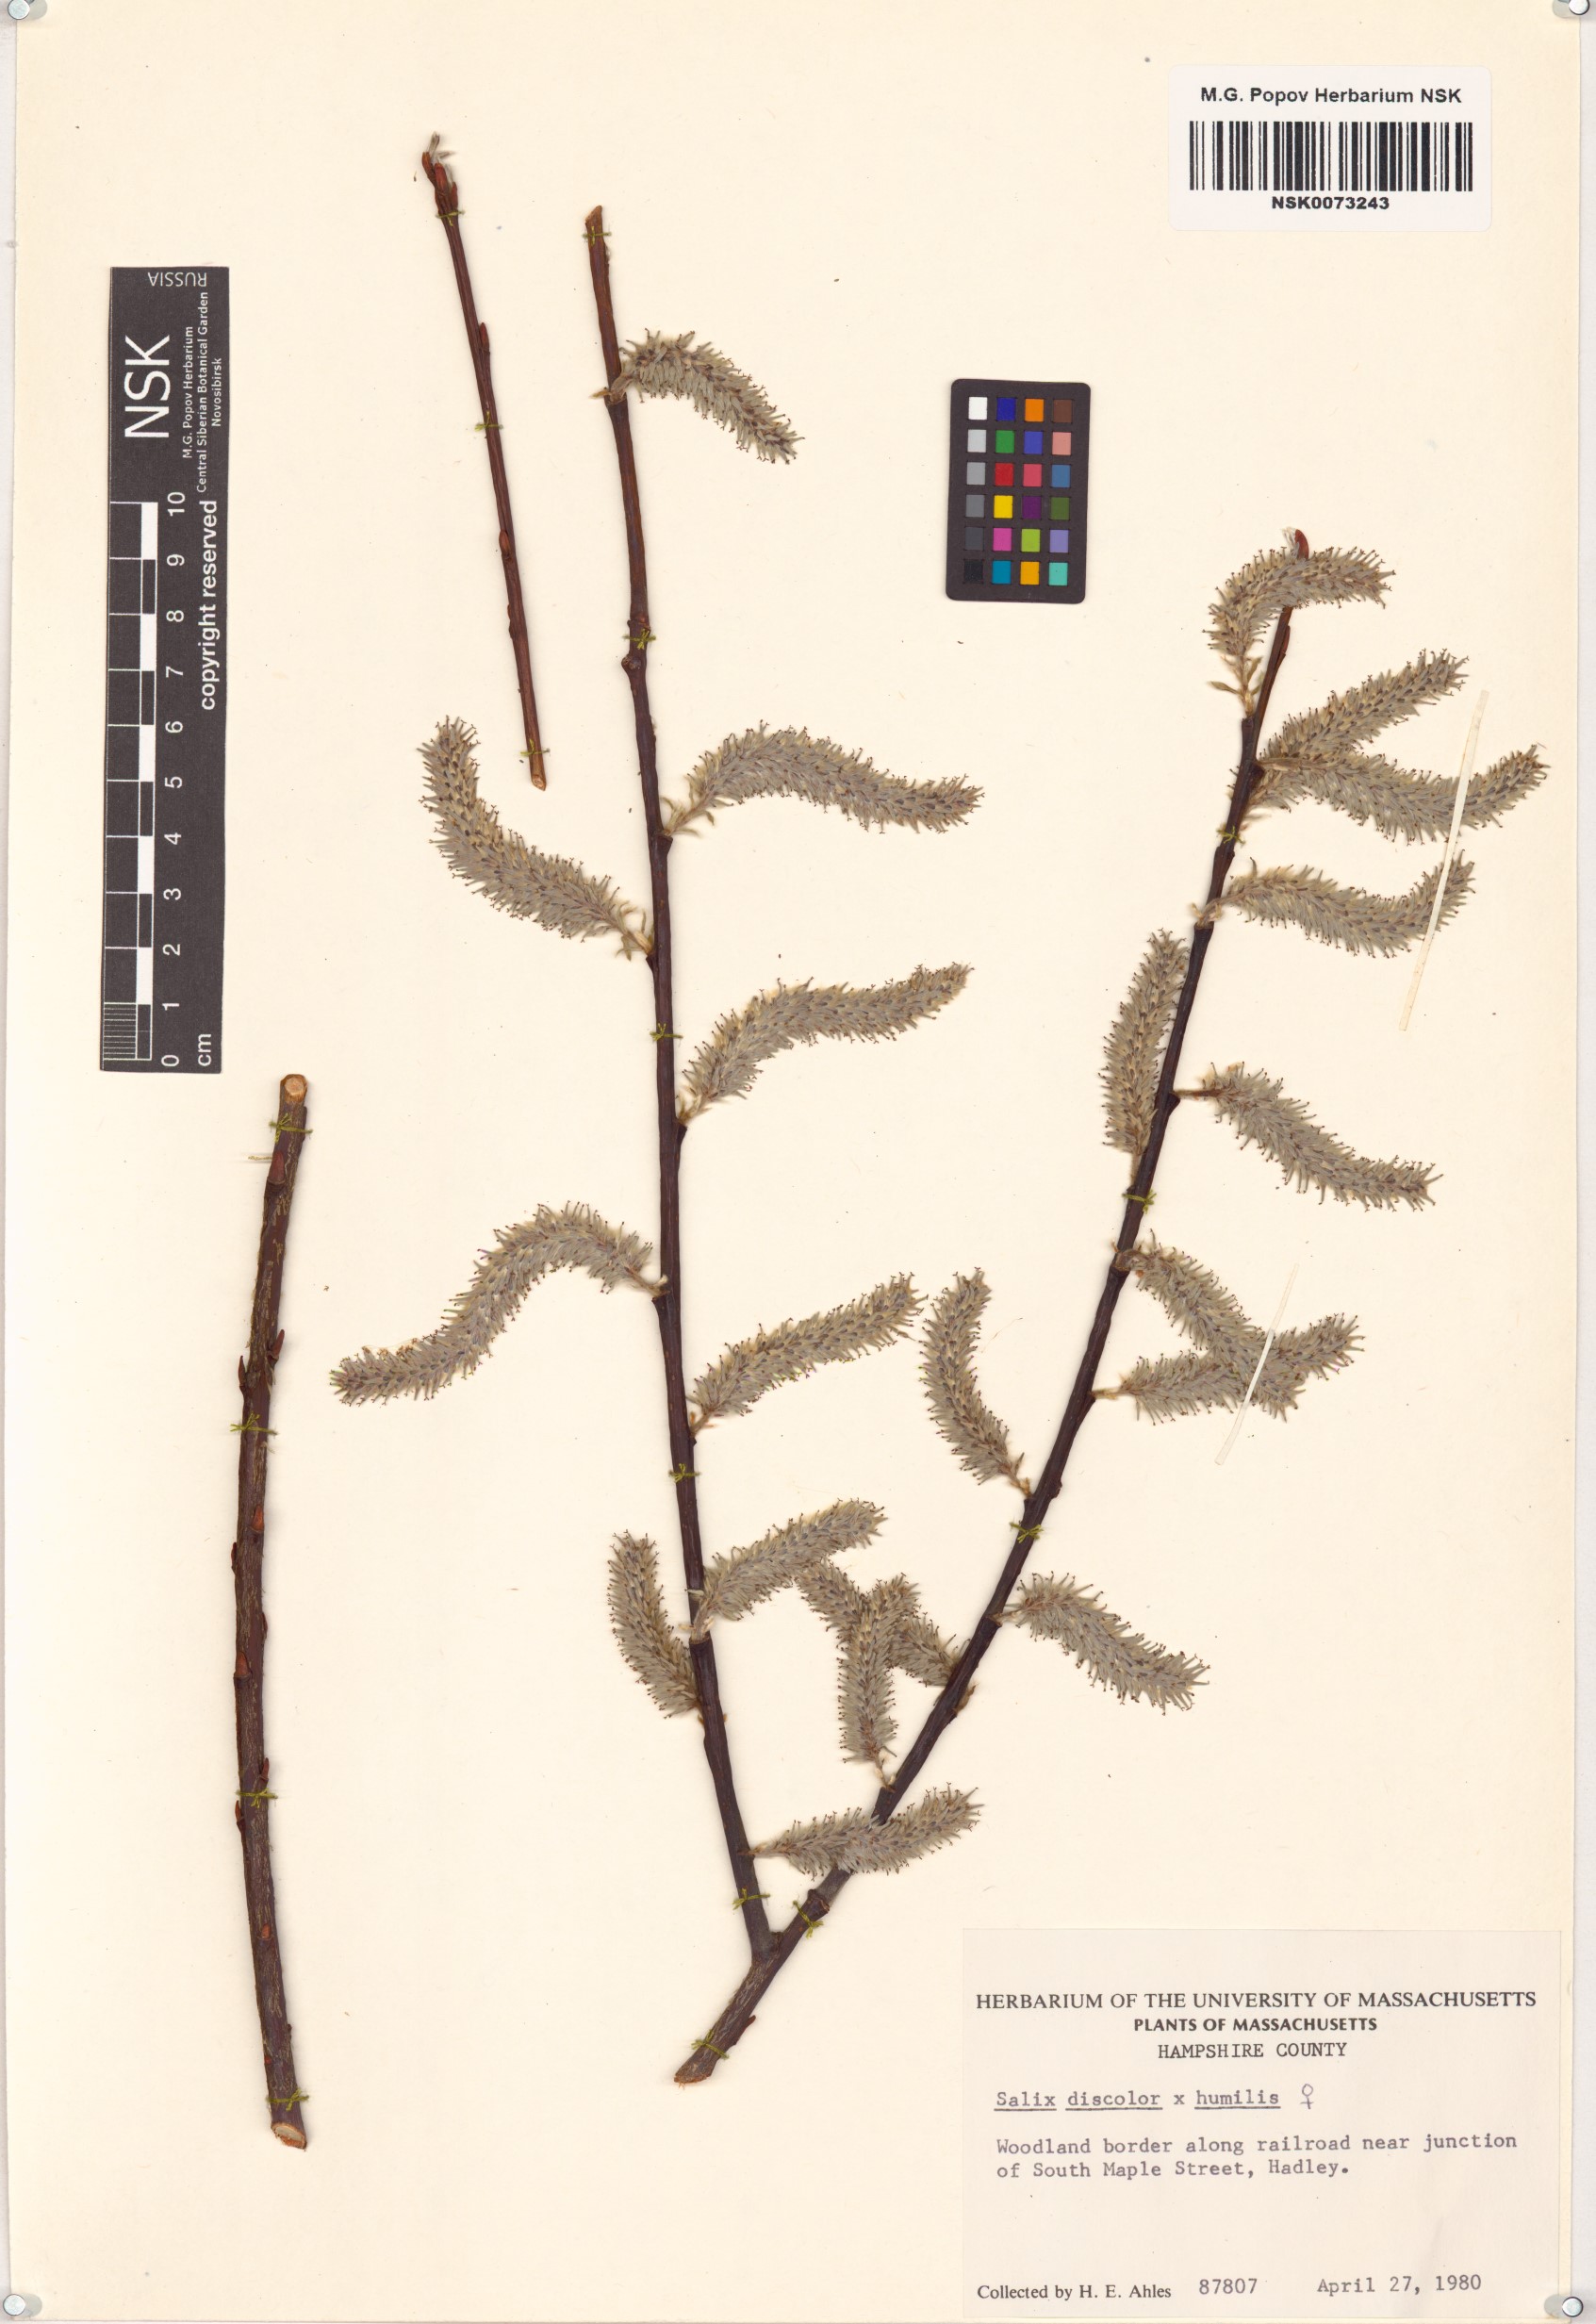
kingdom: Plantae
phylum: Tracheophyta
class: Magnoliopsida
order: Malpighiales
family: Salicaceae
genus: Salix
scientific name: Salix
